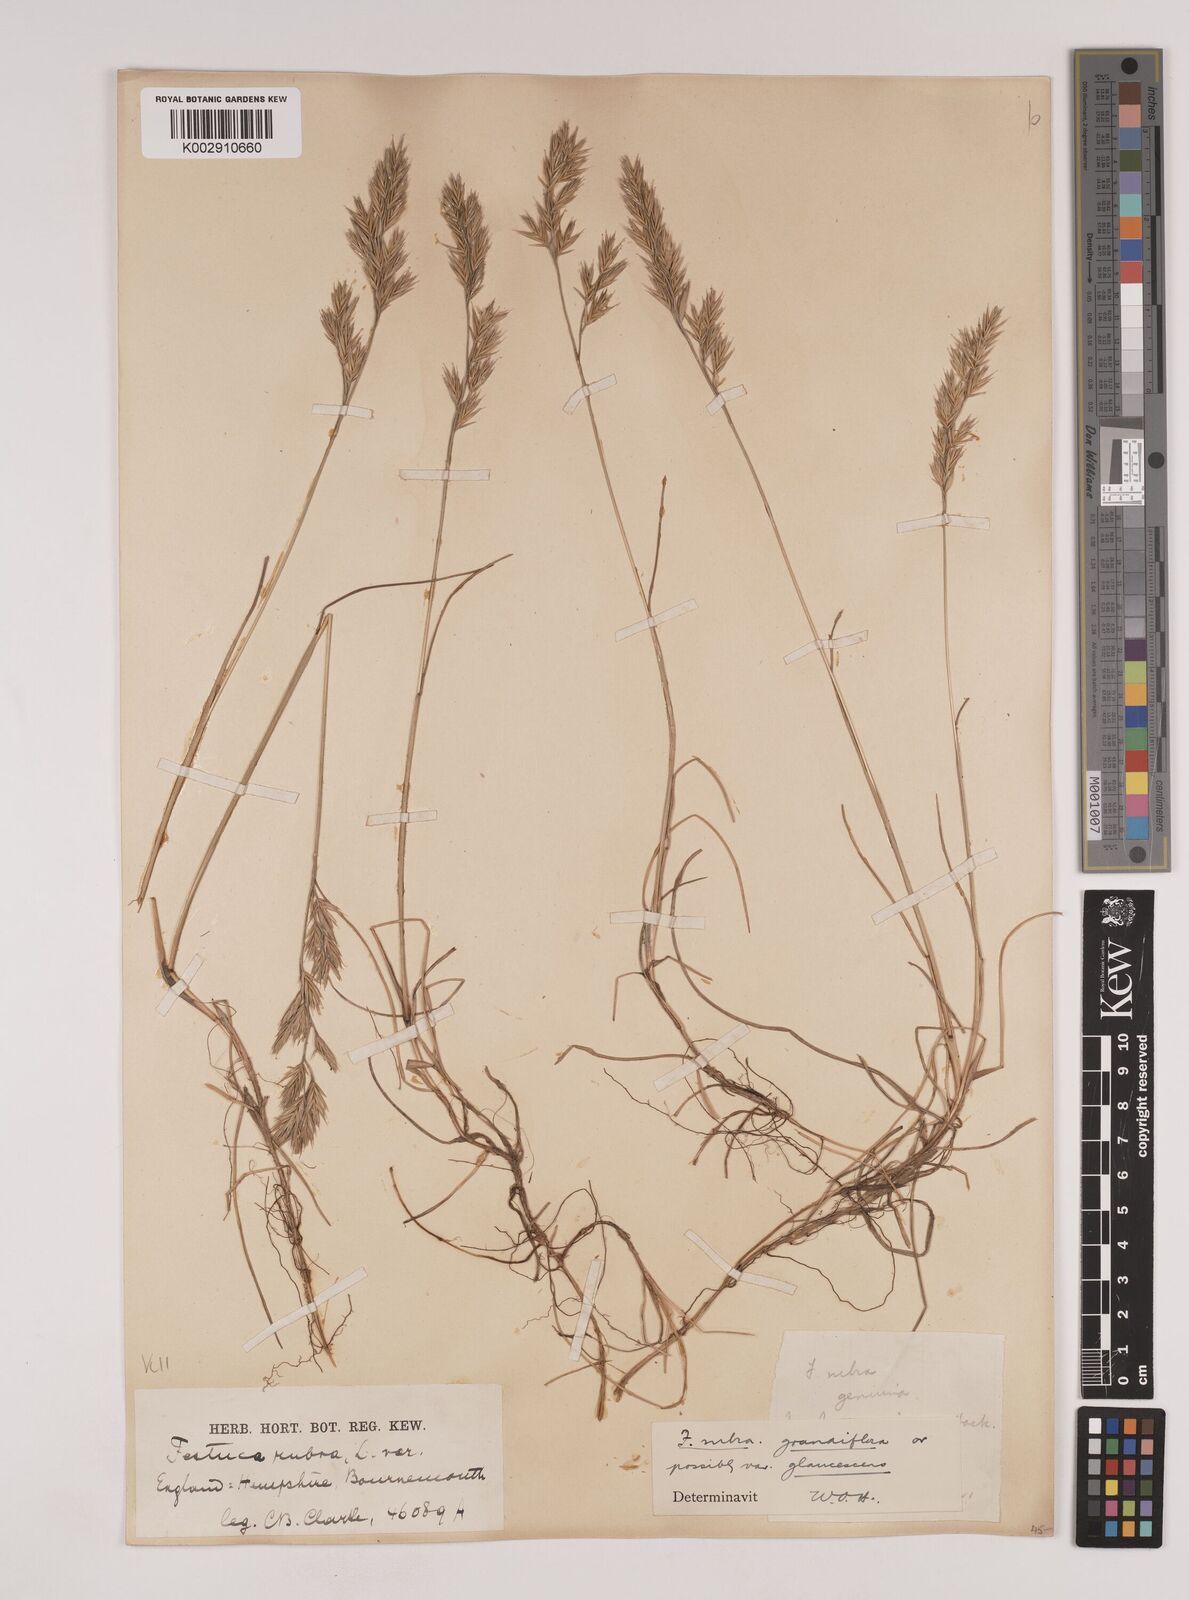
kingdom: Plantae
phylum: Tracheophyta
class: Liliopsida
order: Poales
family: Poaceae
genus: Festuca
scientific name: Festuca rubra
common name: Red fescue
